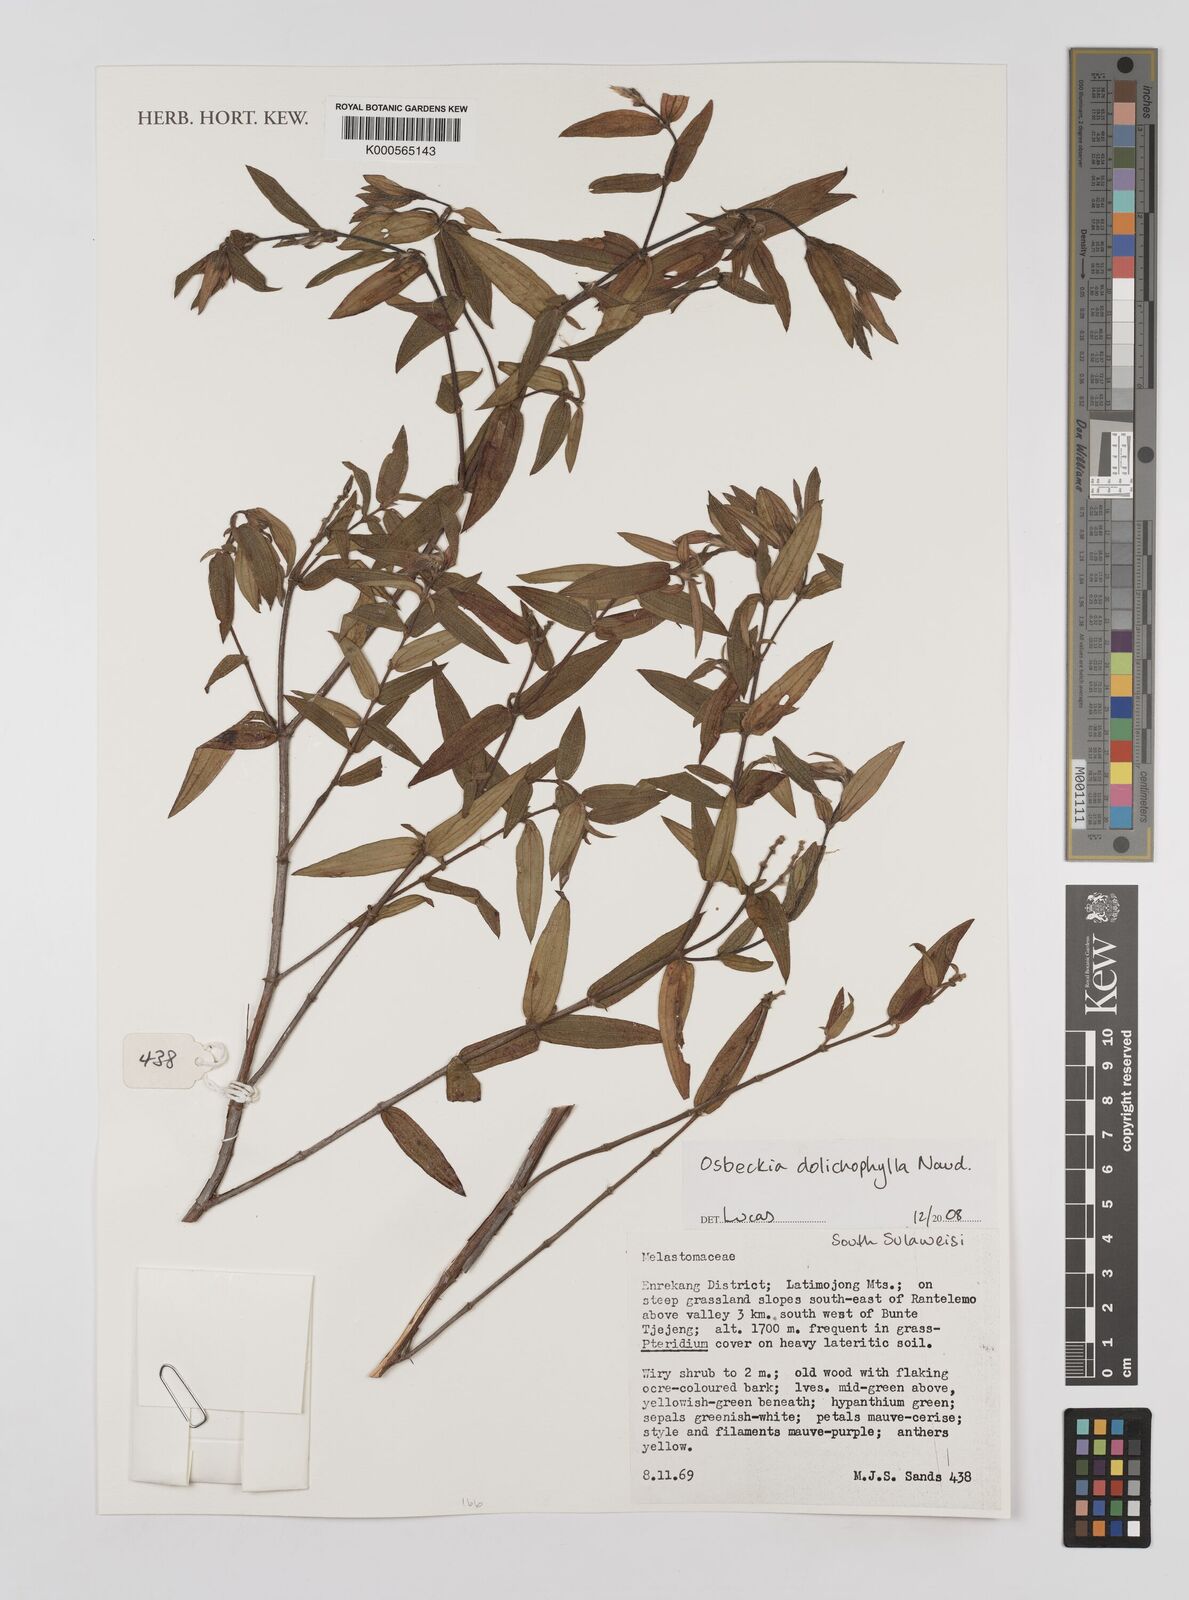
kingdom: Plantae
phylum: Tracheophyta
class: Magnoliopsida
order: Myrtales
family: Melastomataceae
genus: Osbeckia
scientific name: Osbeckia dolichophylla
